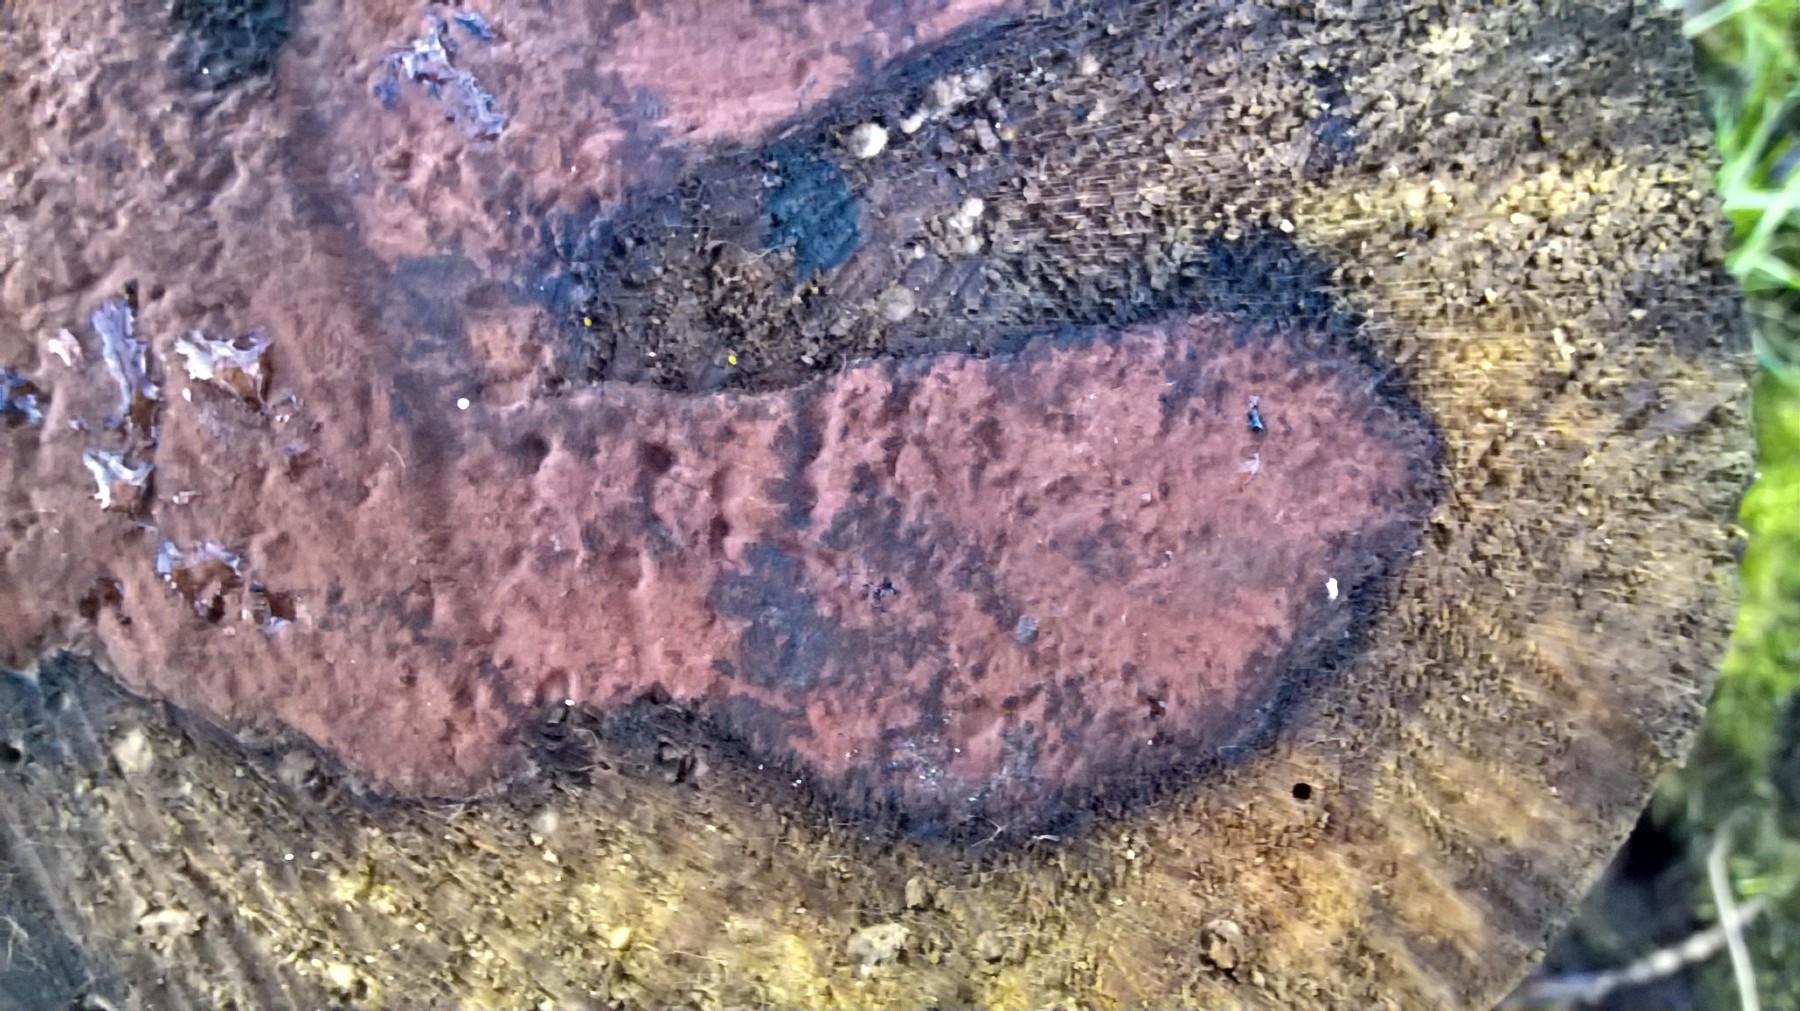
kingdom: Fungi
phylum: Ascomycota
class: Sordariomycetes
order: Xylariales
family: Hypoxylaceae
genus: Hypoxylon
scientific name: Hypoxylon
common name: kulbær
